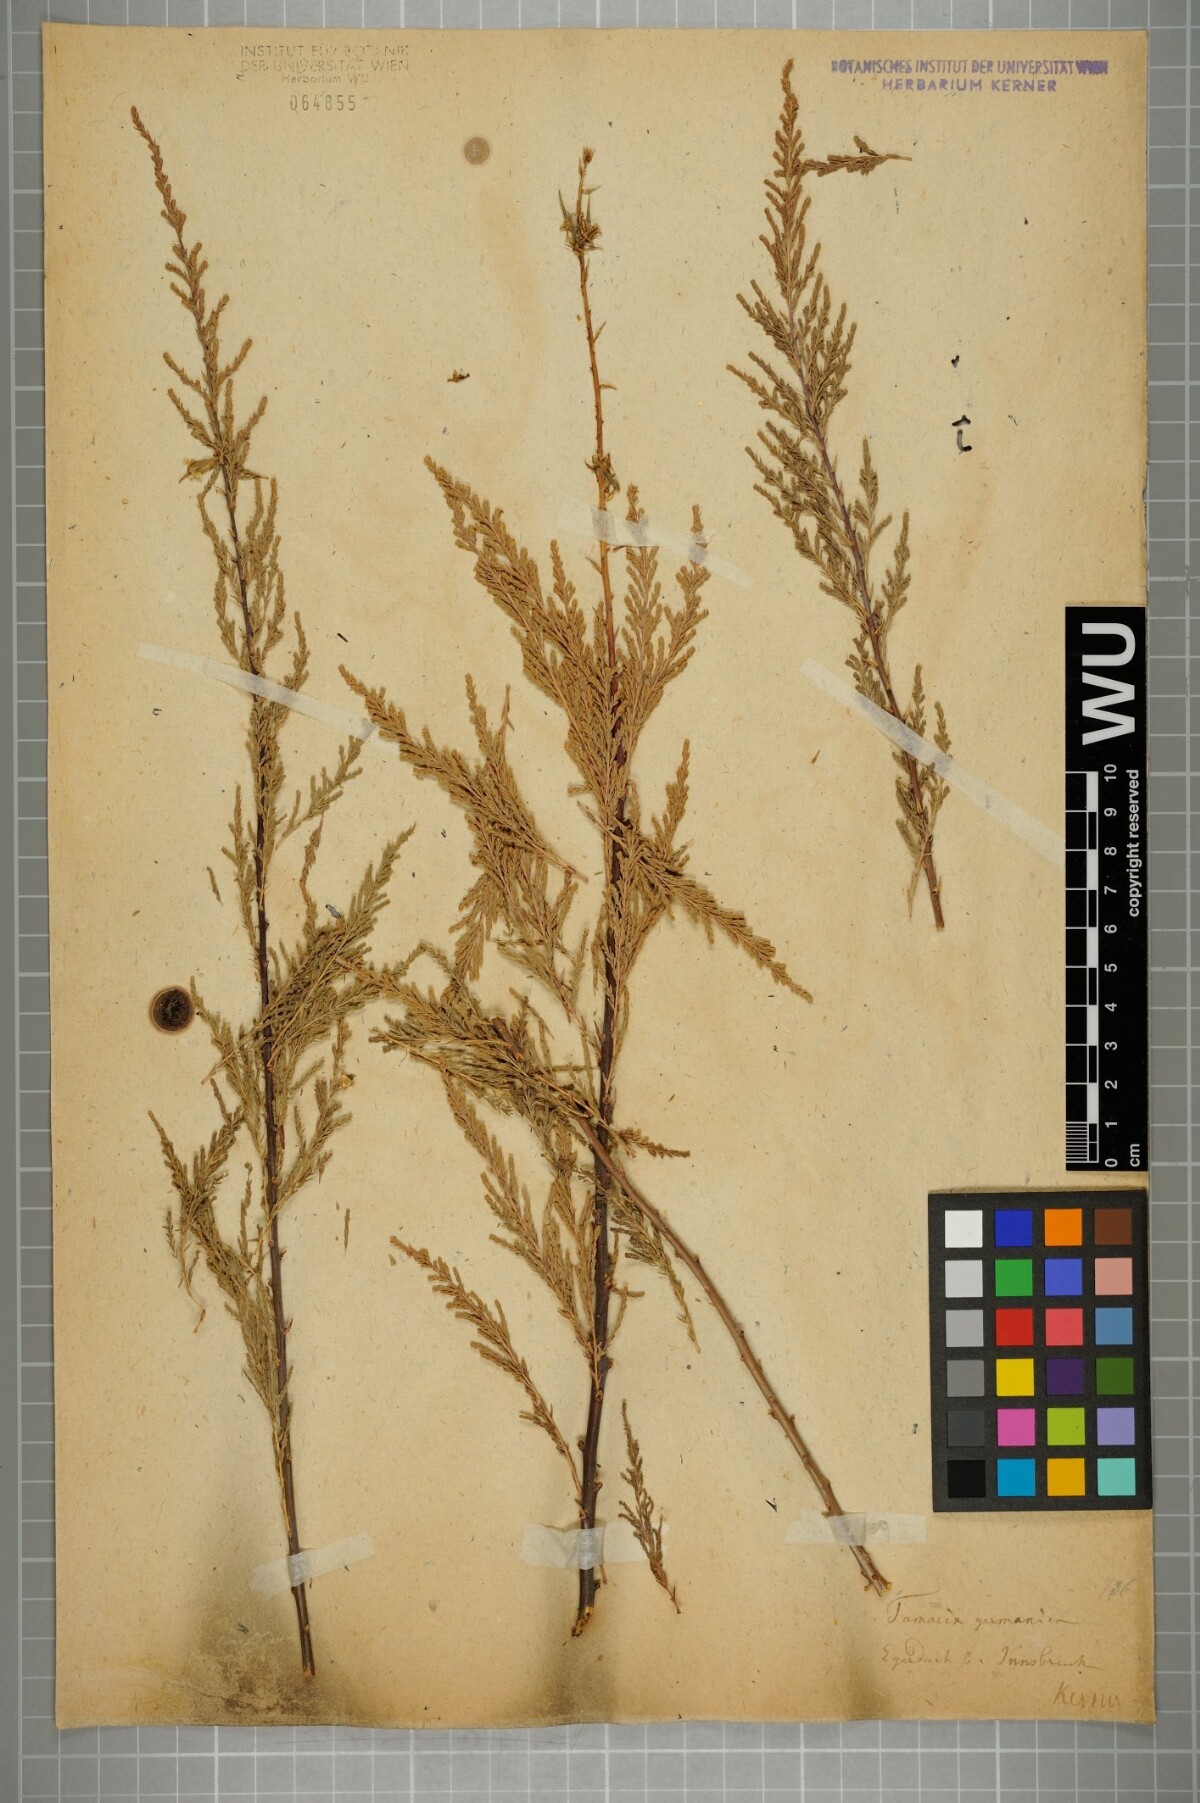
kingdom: Plantae
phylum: Tracheophyta
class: Magnoliopsida
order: Caryophyllales
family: Tamaricaceae
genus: Myricaria
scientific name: Myricaria germanica
